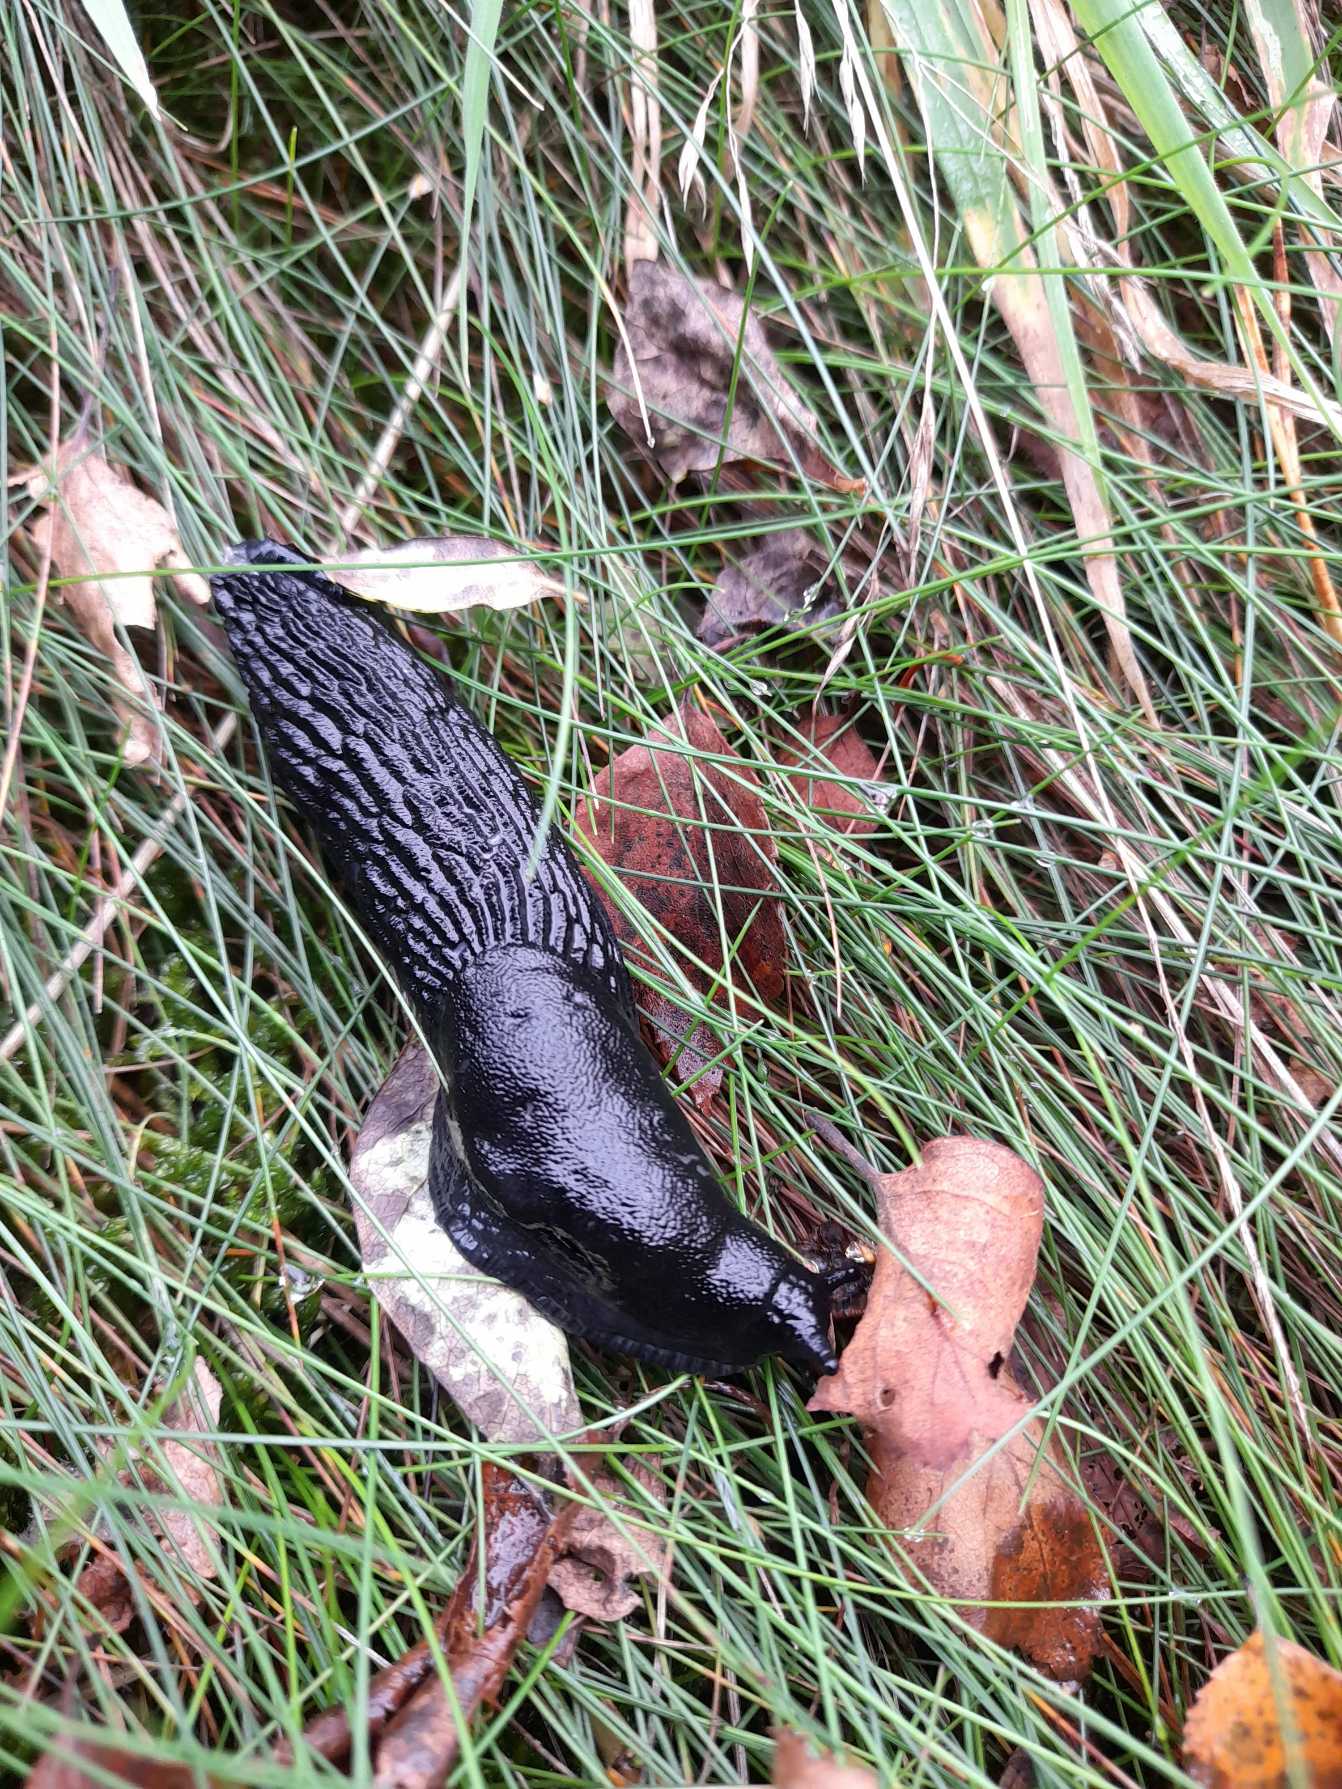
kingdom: Animalia
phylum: Mollusca
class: Gastropoda
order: Stylommatophora
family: Arionidae
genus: Arion
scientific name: Arion ater
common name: Sort skovsnegl
